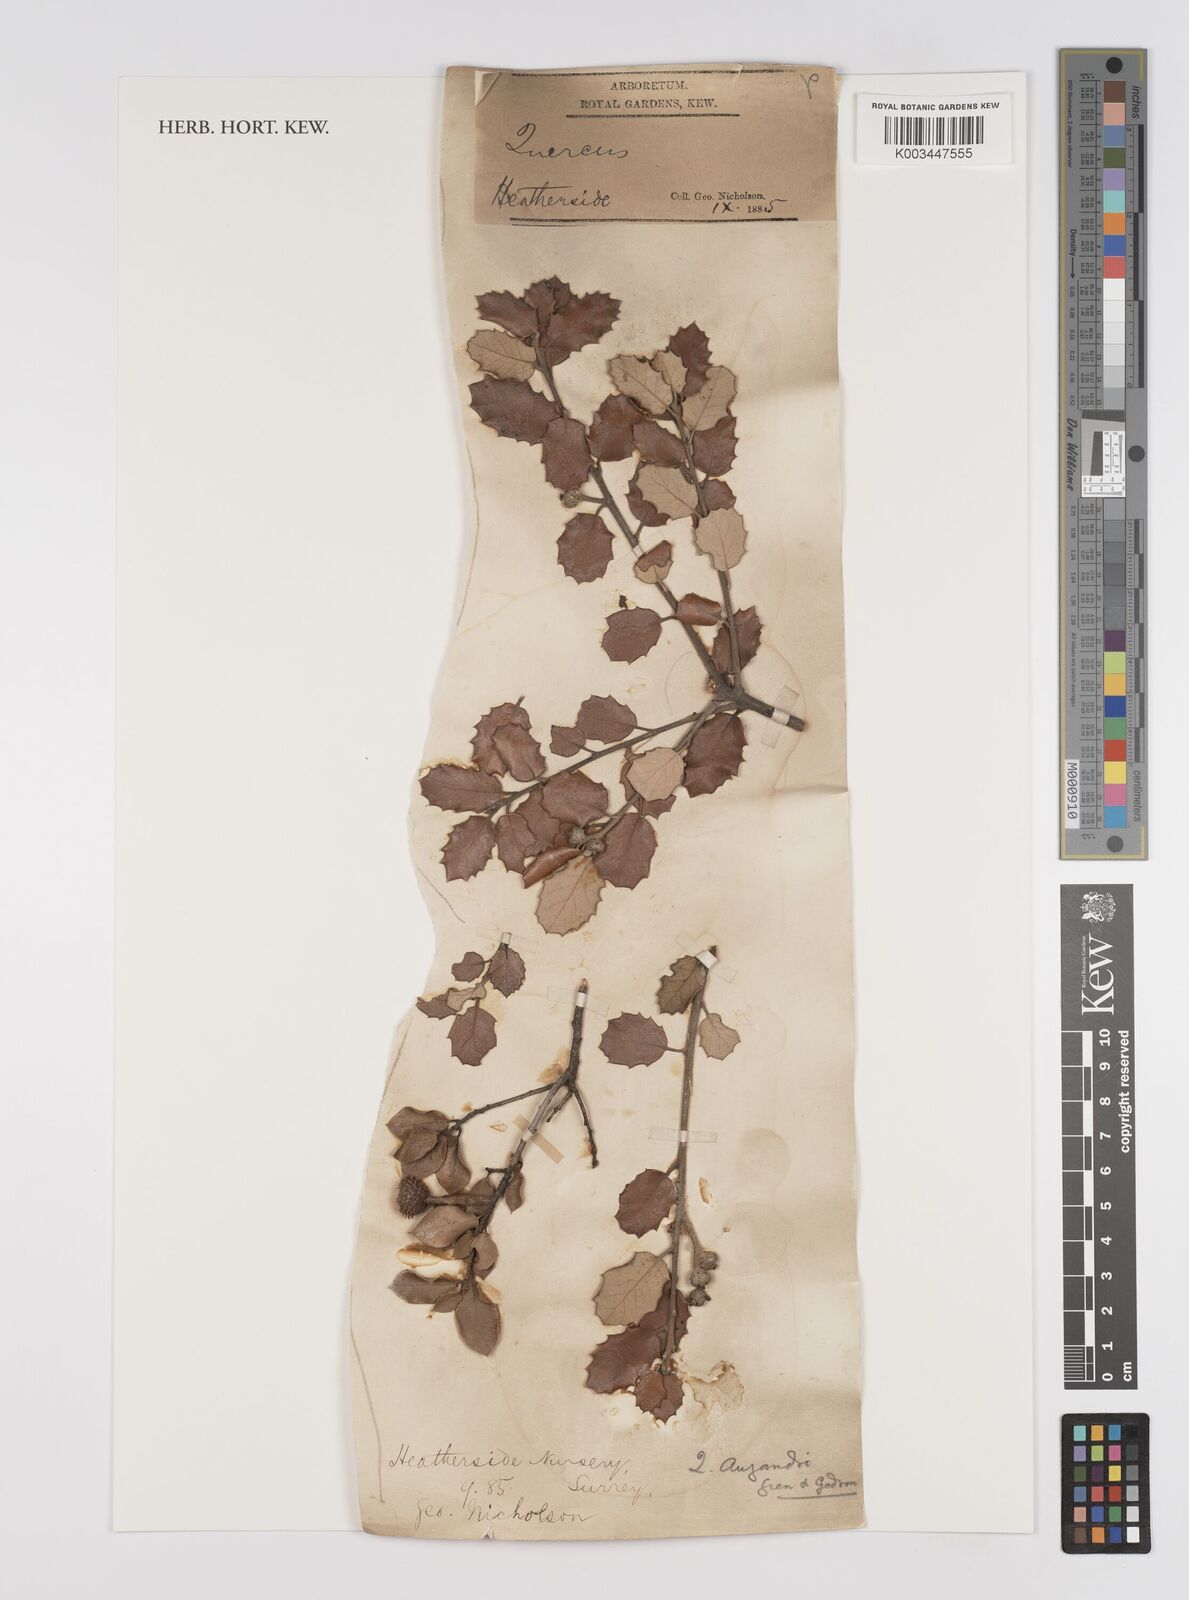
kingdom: Plantae
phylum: Tracheophyta
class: Magnoliopsida
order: Fagales
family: Fagaceae
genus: Quercus
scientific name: Quercus auzendei
